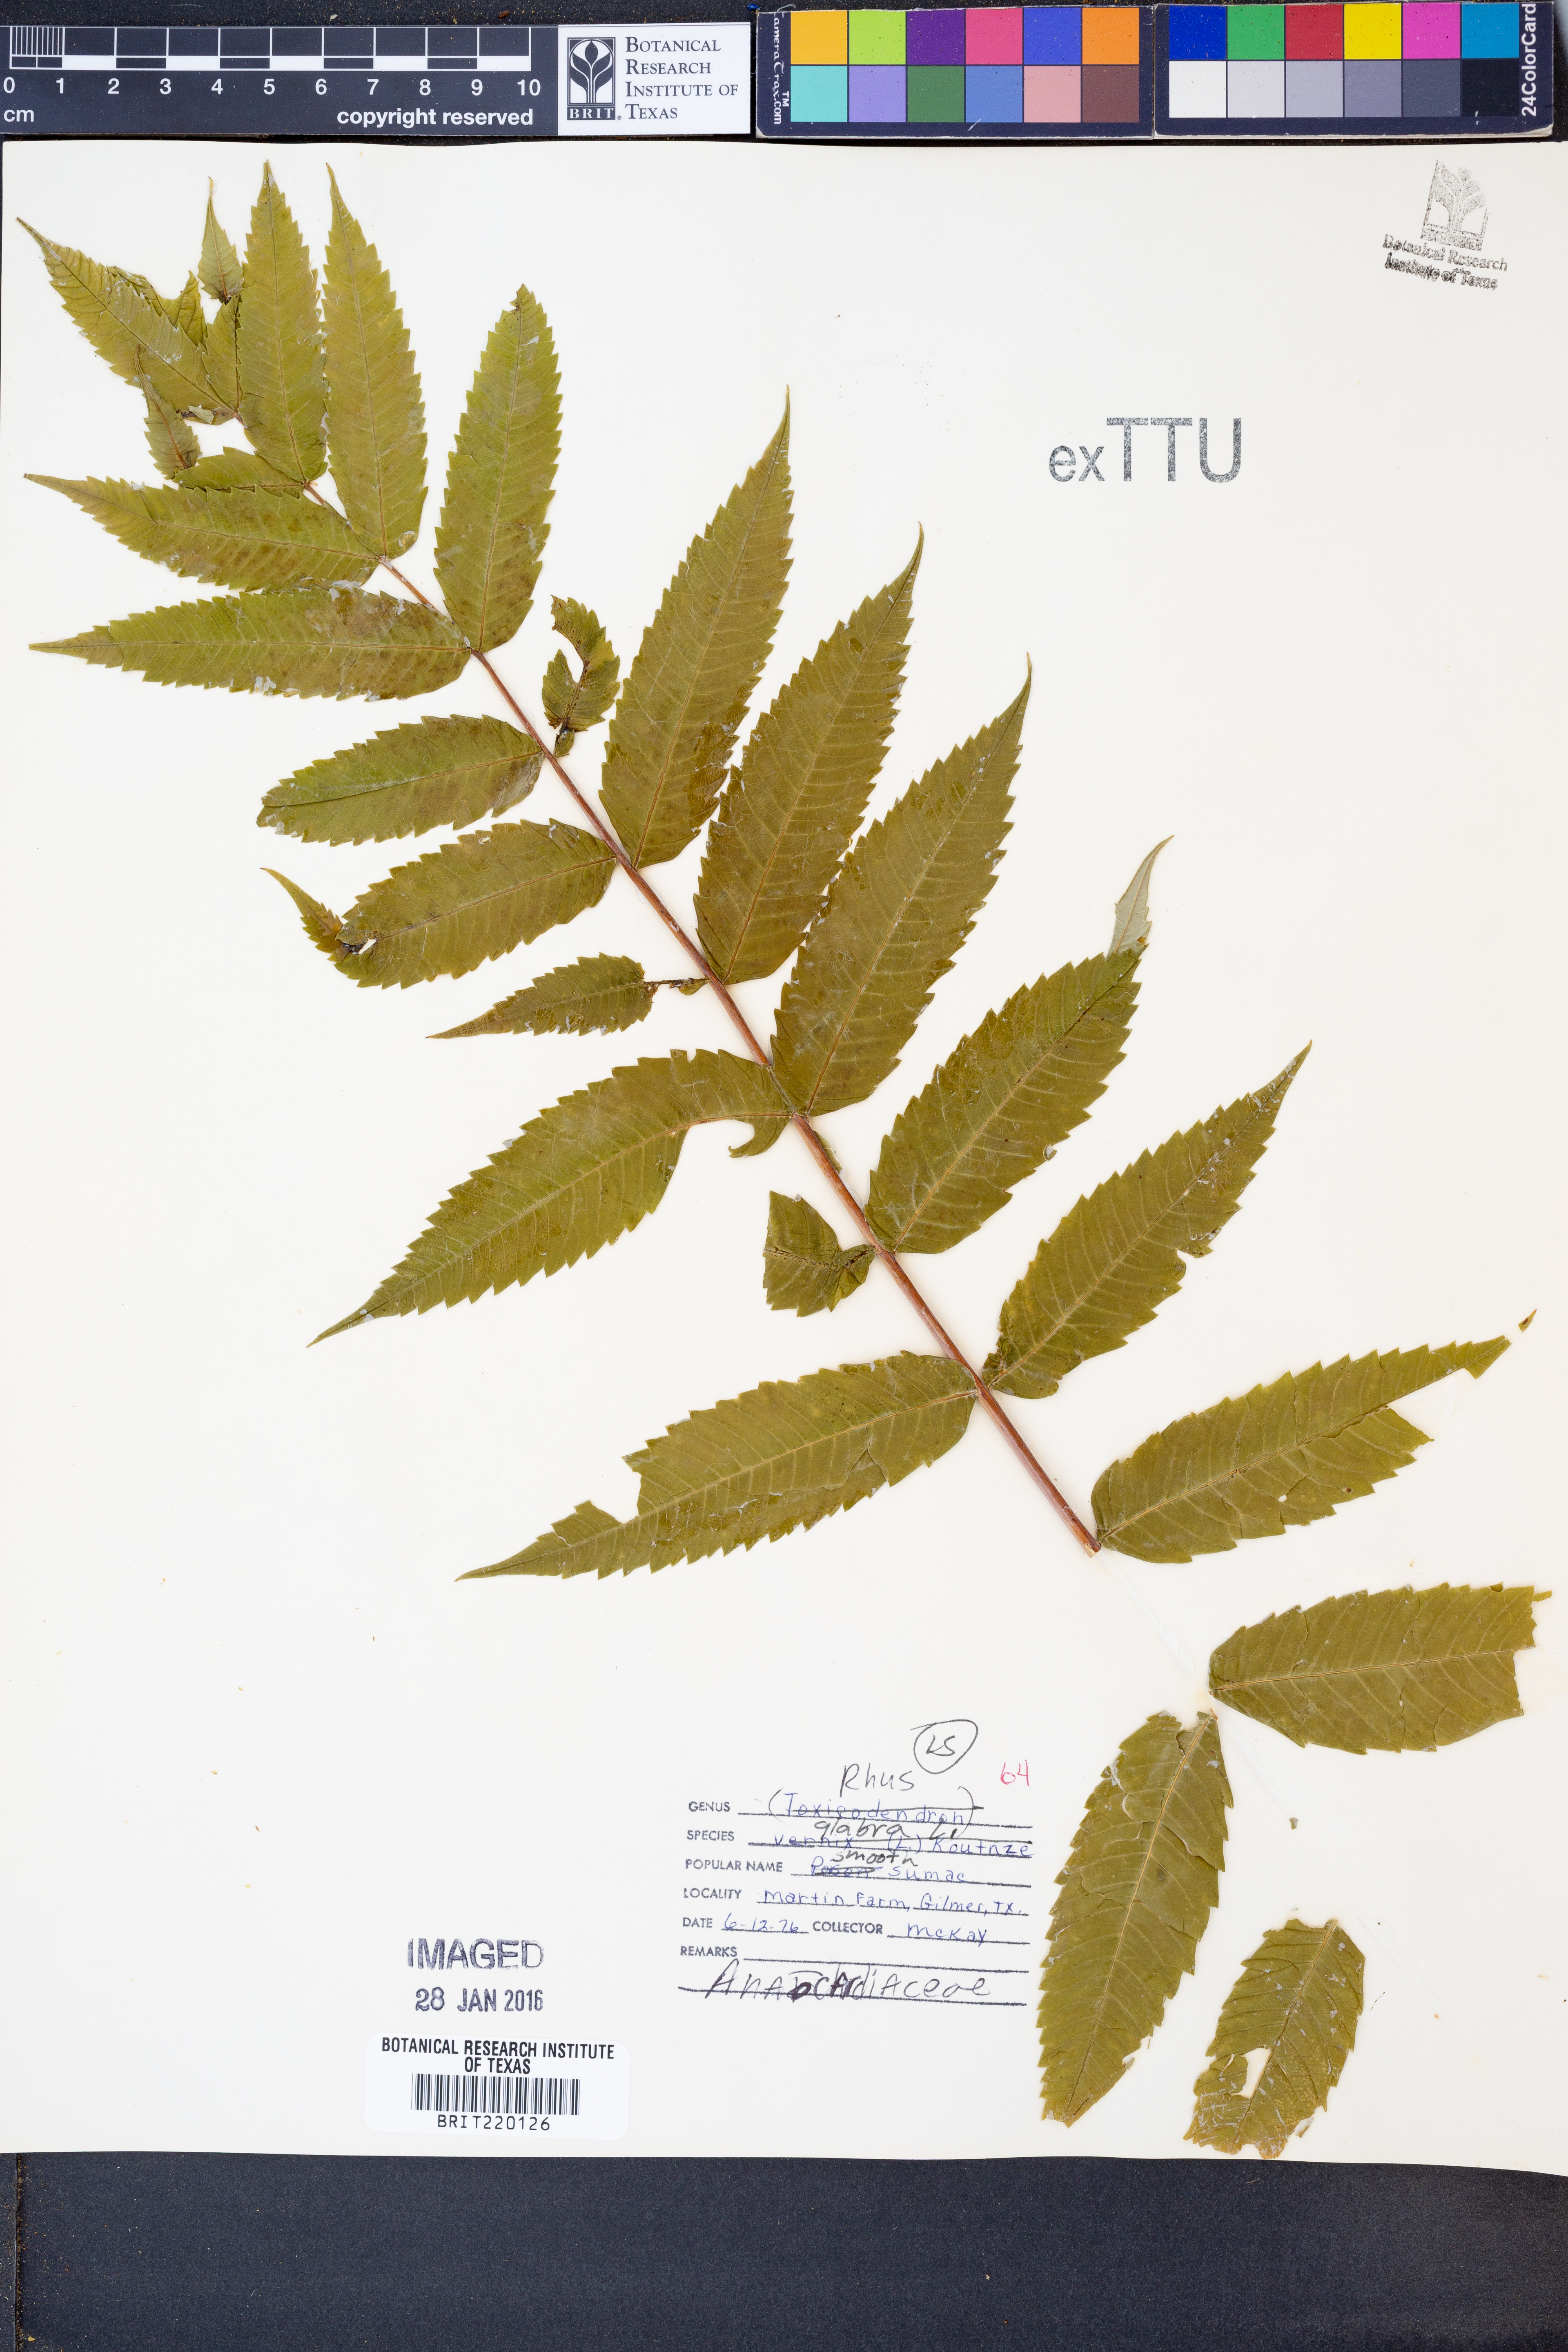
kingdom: Plantae
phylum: Tracheophyta
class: Magnoliopsida
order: Sapindales
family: Anacardiaceae
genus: Rhus
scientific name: Rhus glabra
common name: Scarlet sumac
